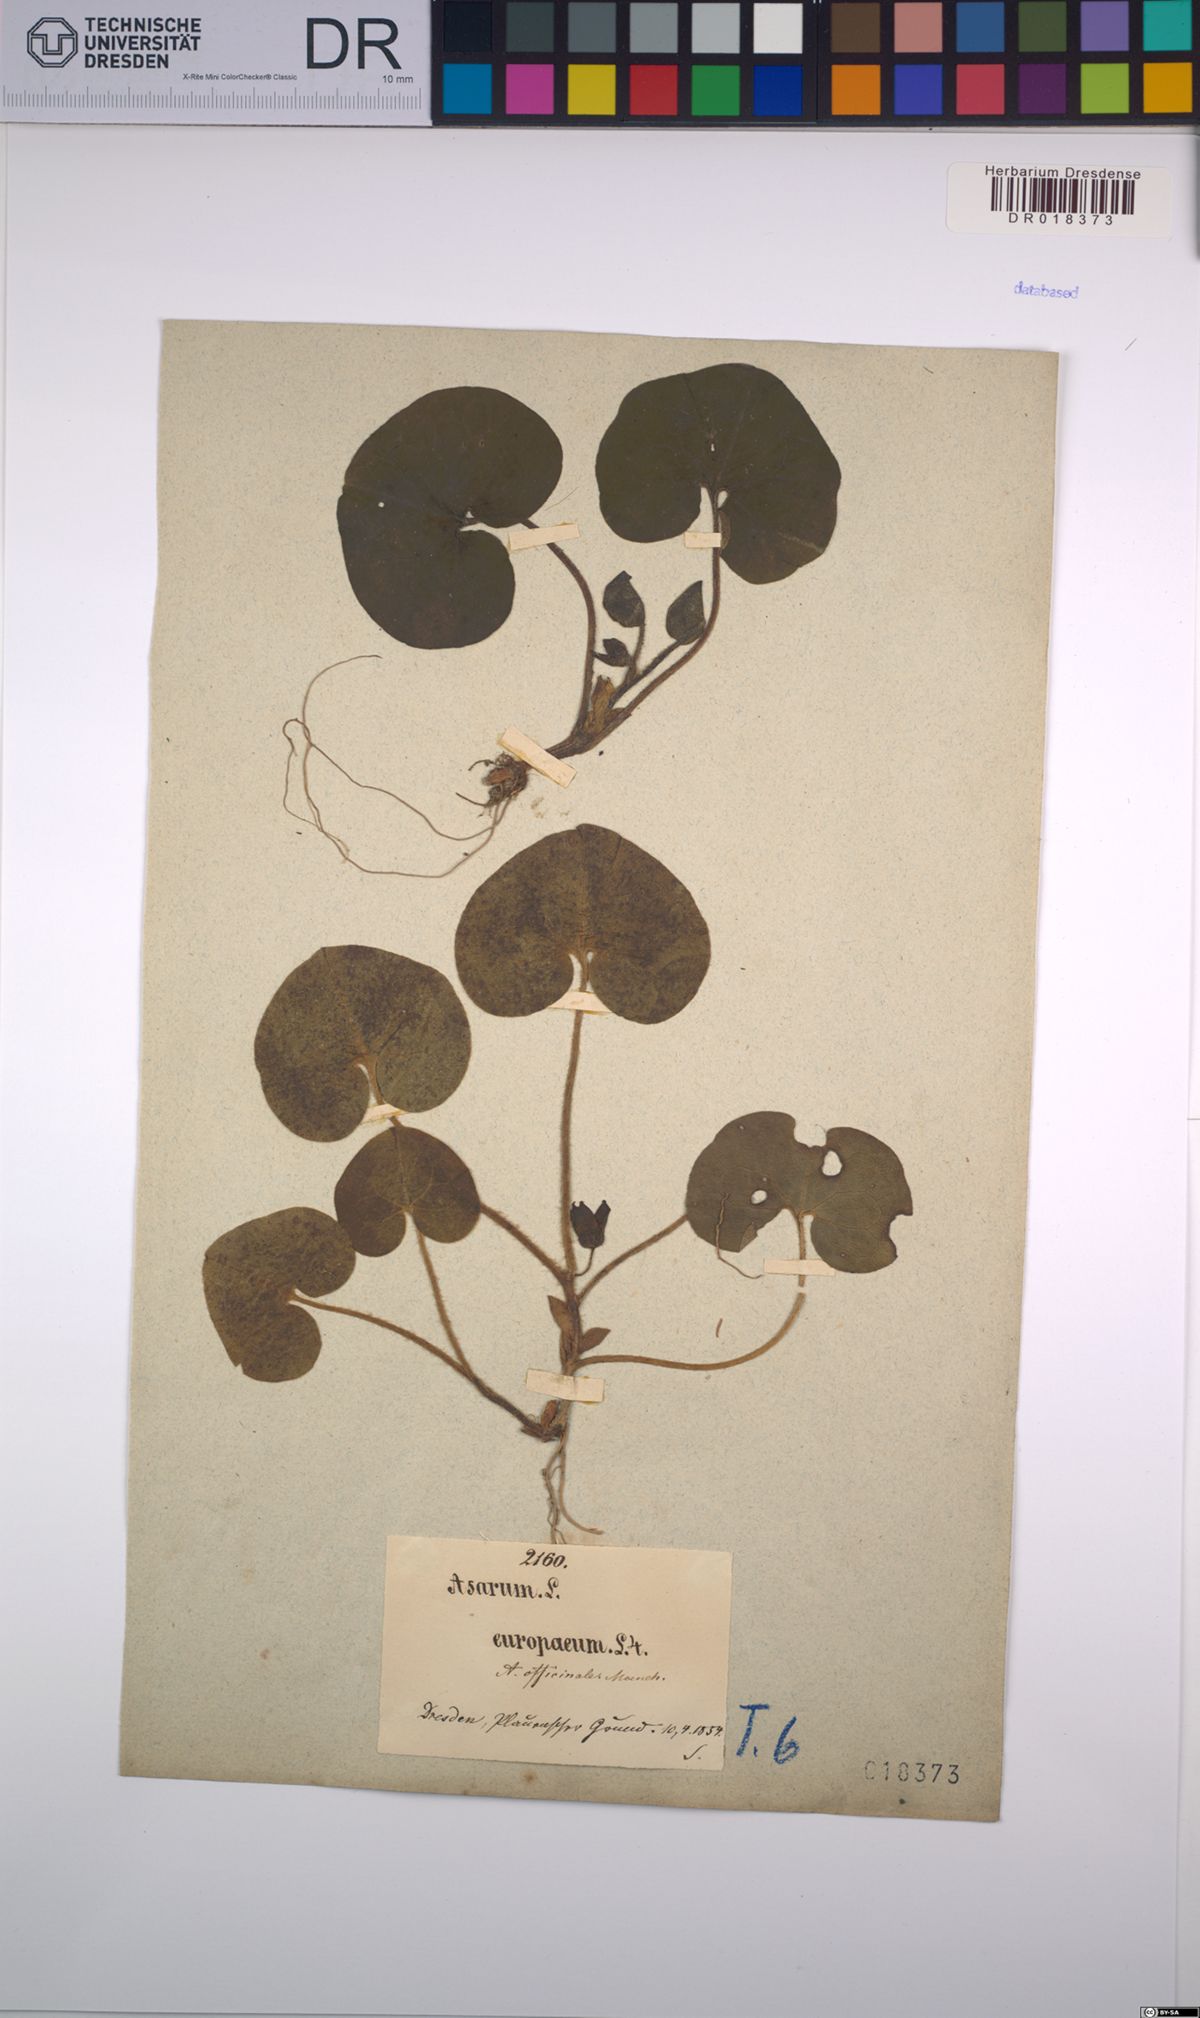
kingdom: Plantae
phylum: Tracheophyta
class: Magnoliopsida
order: Piperales
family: Aristolochiaceae
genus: Asarum
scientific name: Asarum europaeum
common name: Asarabacca
